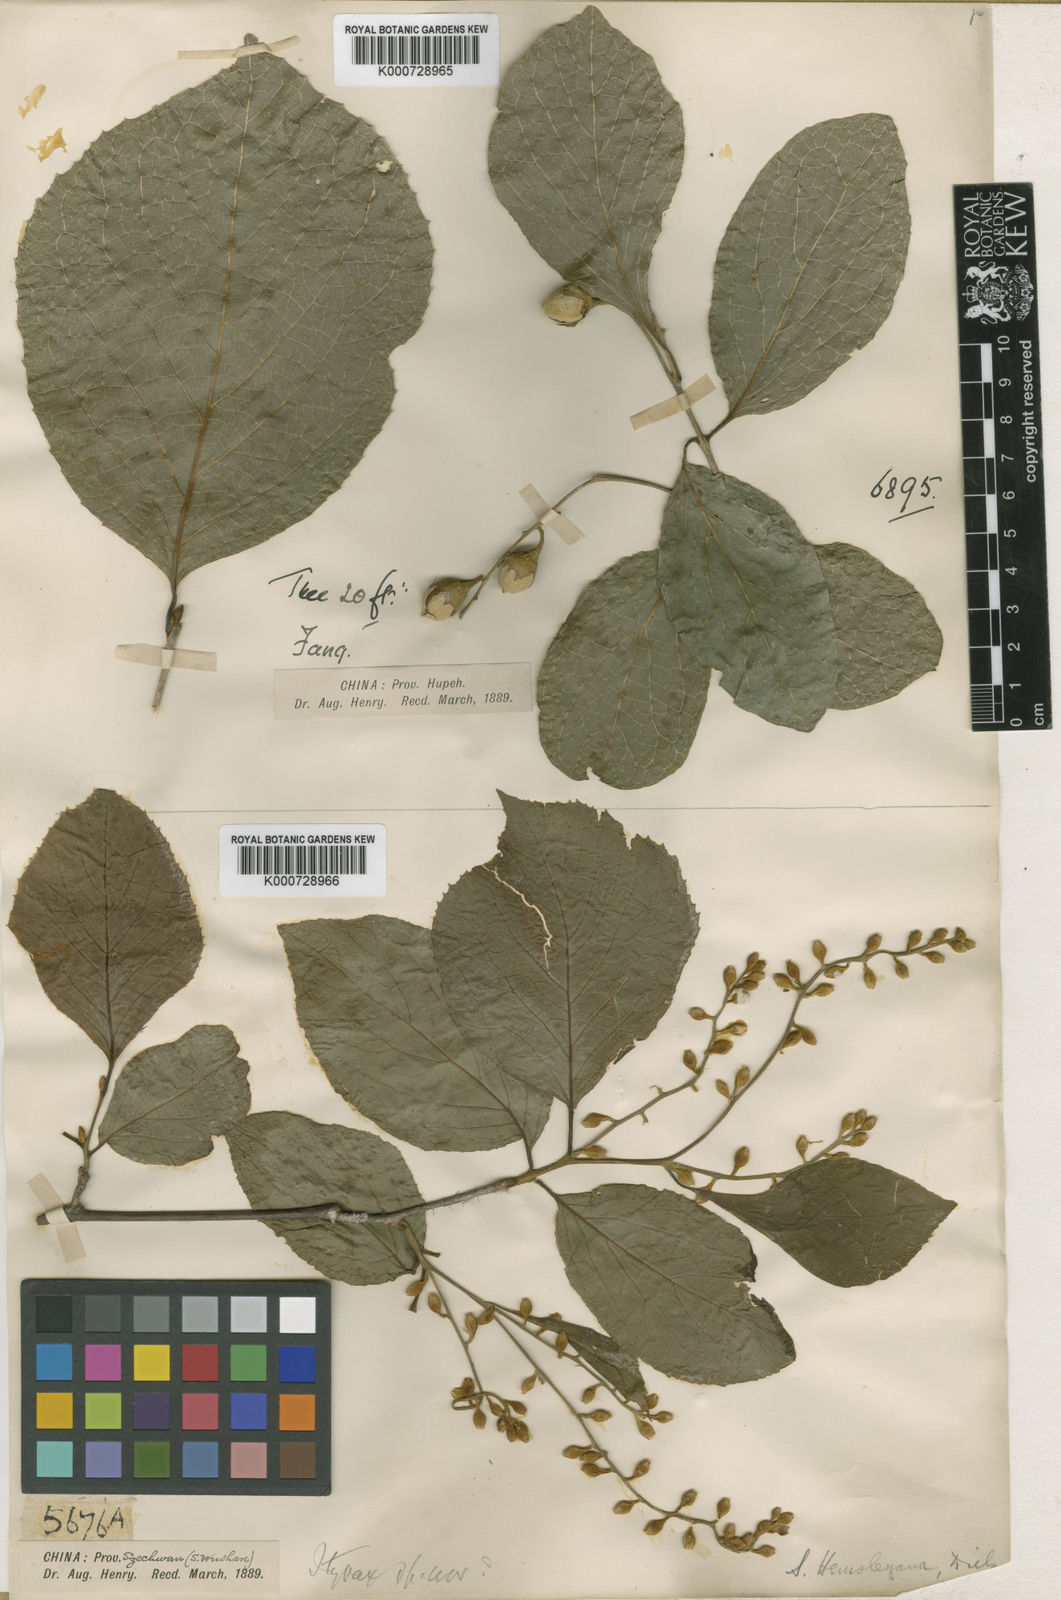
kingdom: Plantae
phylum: Tracheophyta
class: Magnoliopsida
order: Ericales
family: Styracaceae
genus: Styrax
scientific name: Styrax hemsleyanus
